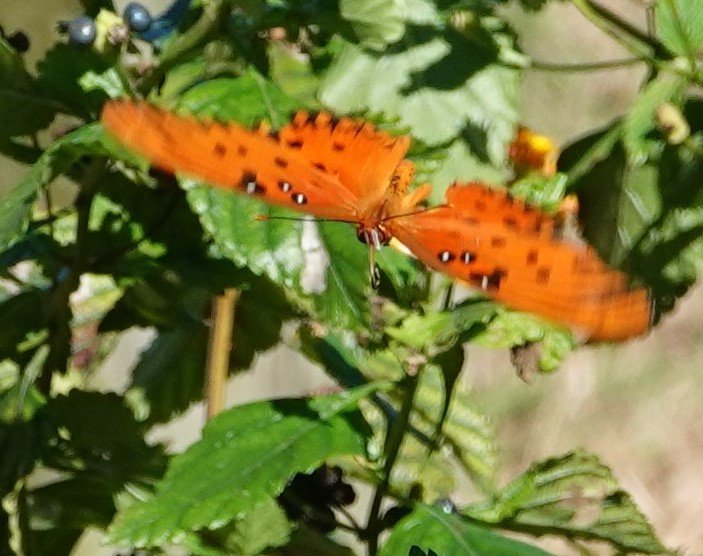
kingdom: Animalia
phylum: Arthropoda
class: Insecta
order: Lepidoptera
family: Nymphalidae
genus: Dione
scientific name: Dione vanillae
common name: Gulf Fritillary
